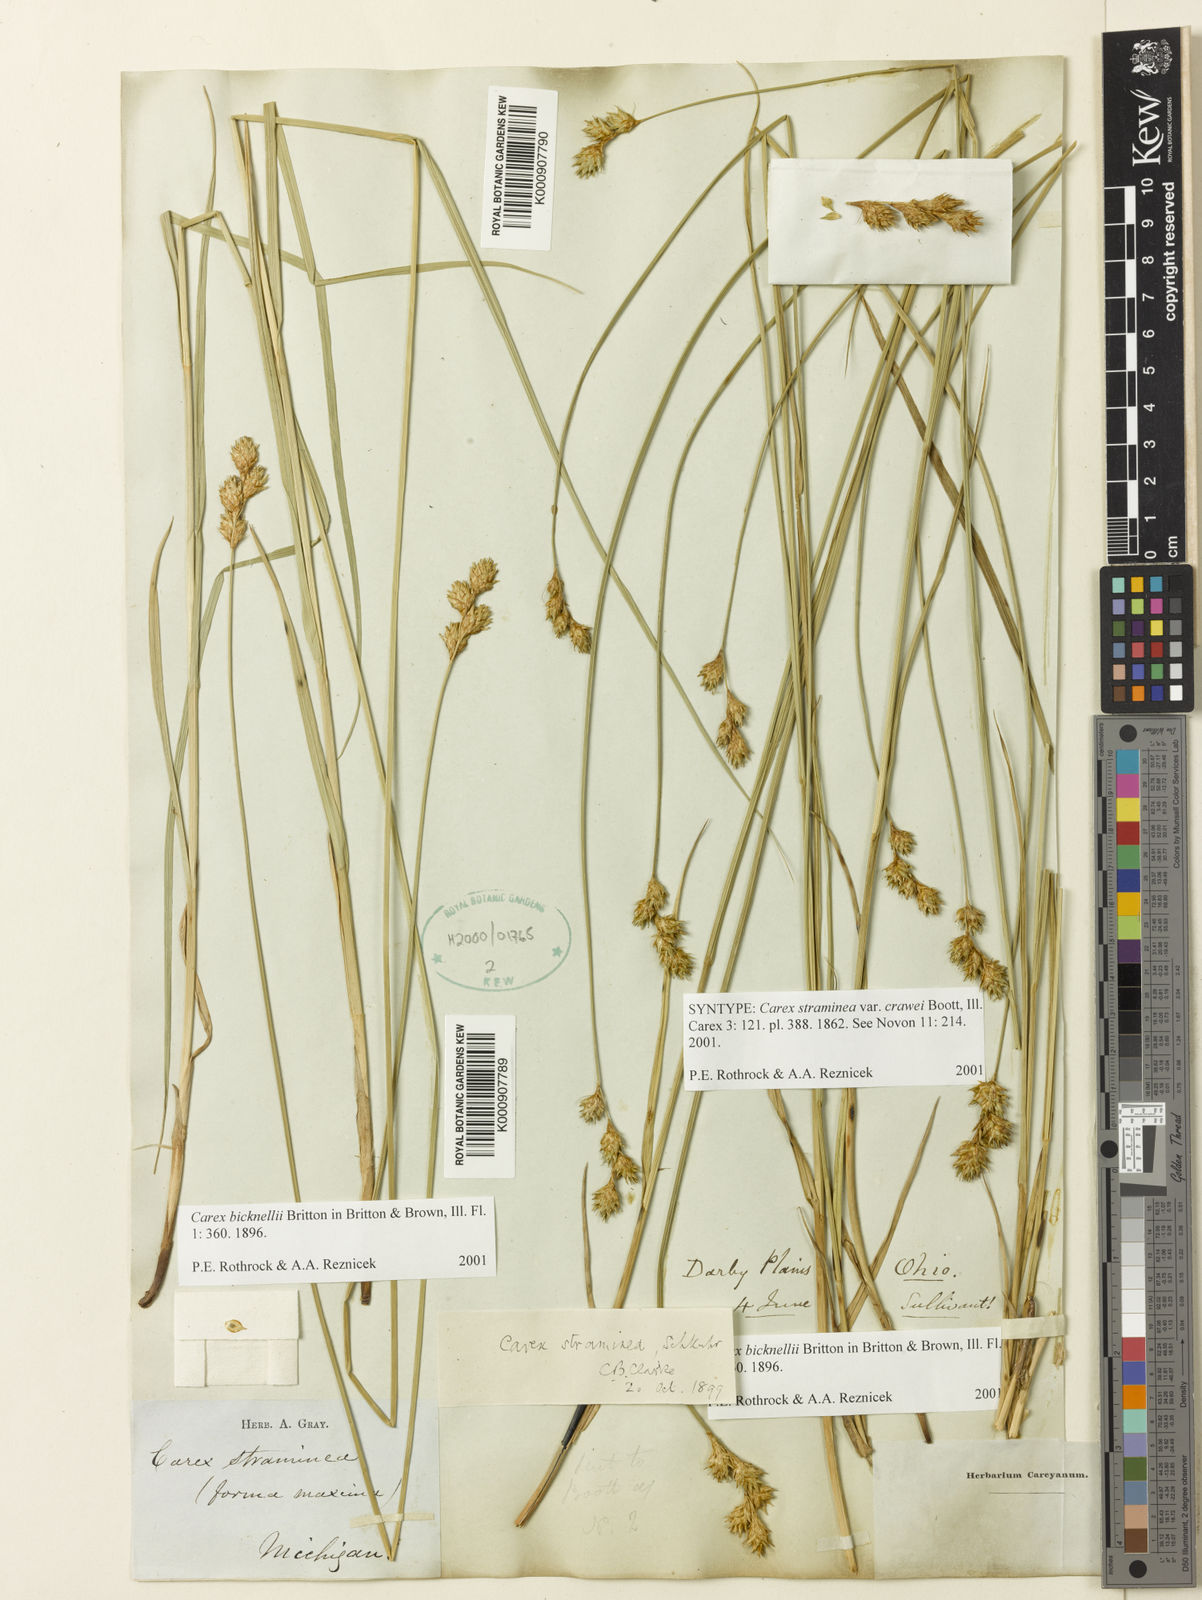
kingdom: Plantae
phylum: Tracheophyta
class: Liliopsida
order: Poales
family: Cyperaceae
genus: Carex
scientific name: Carex brevior
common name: Brevior sedge
